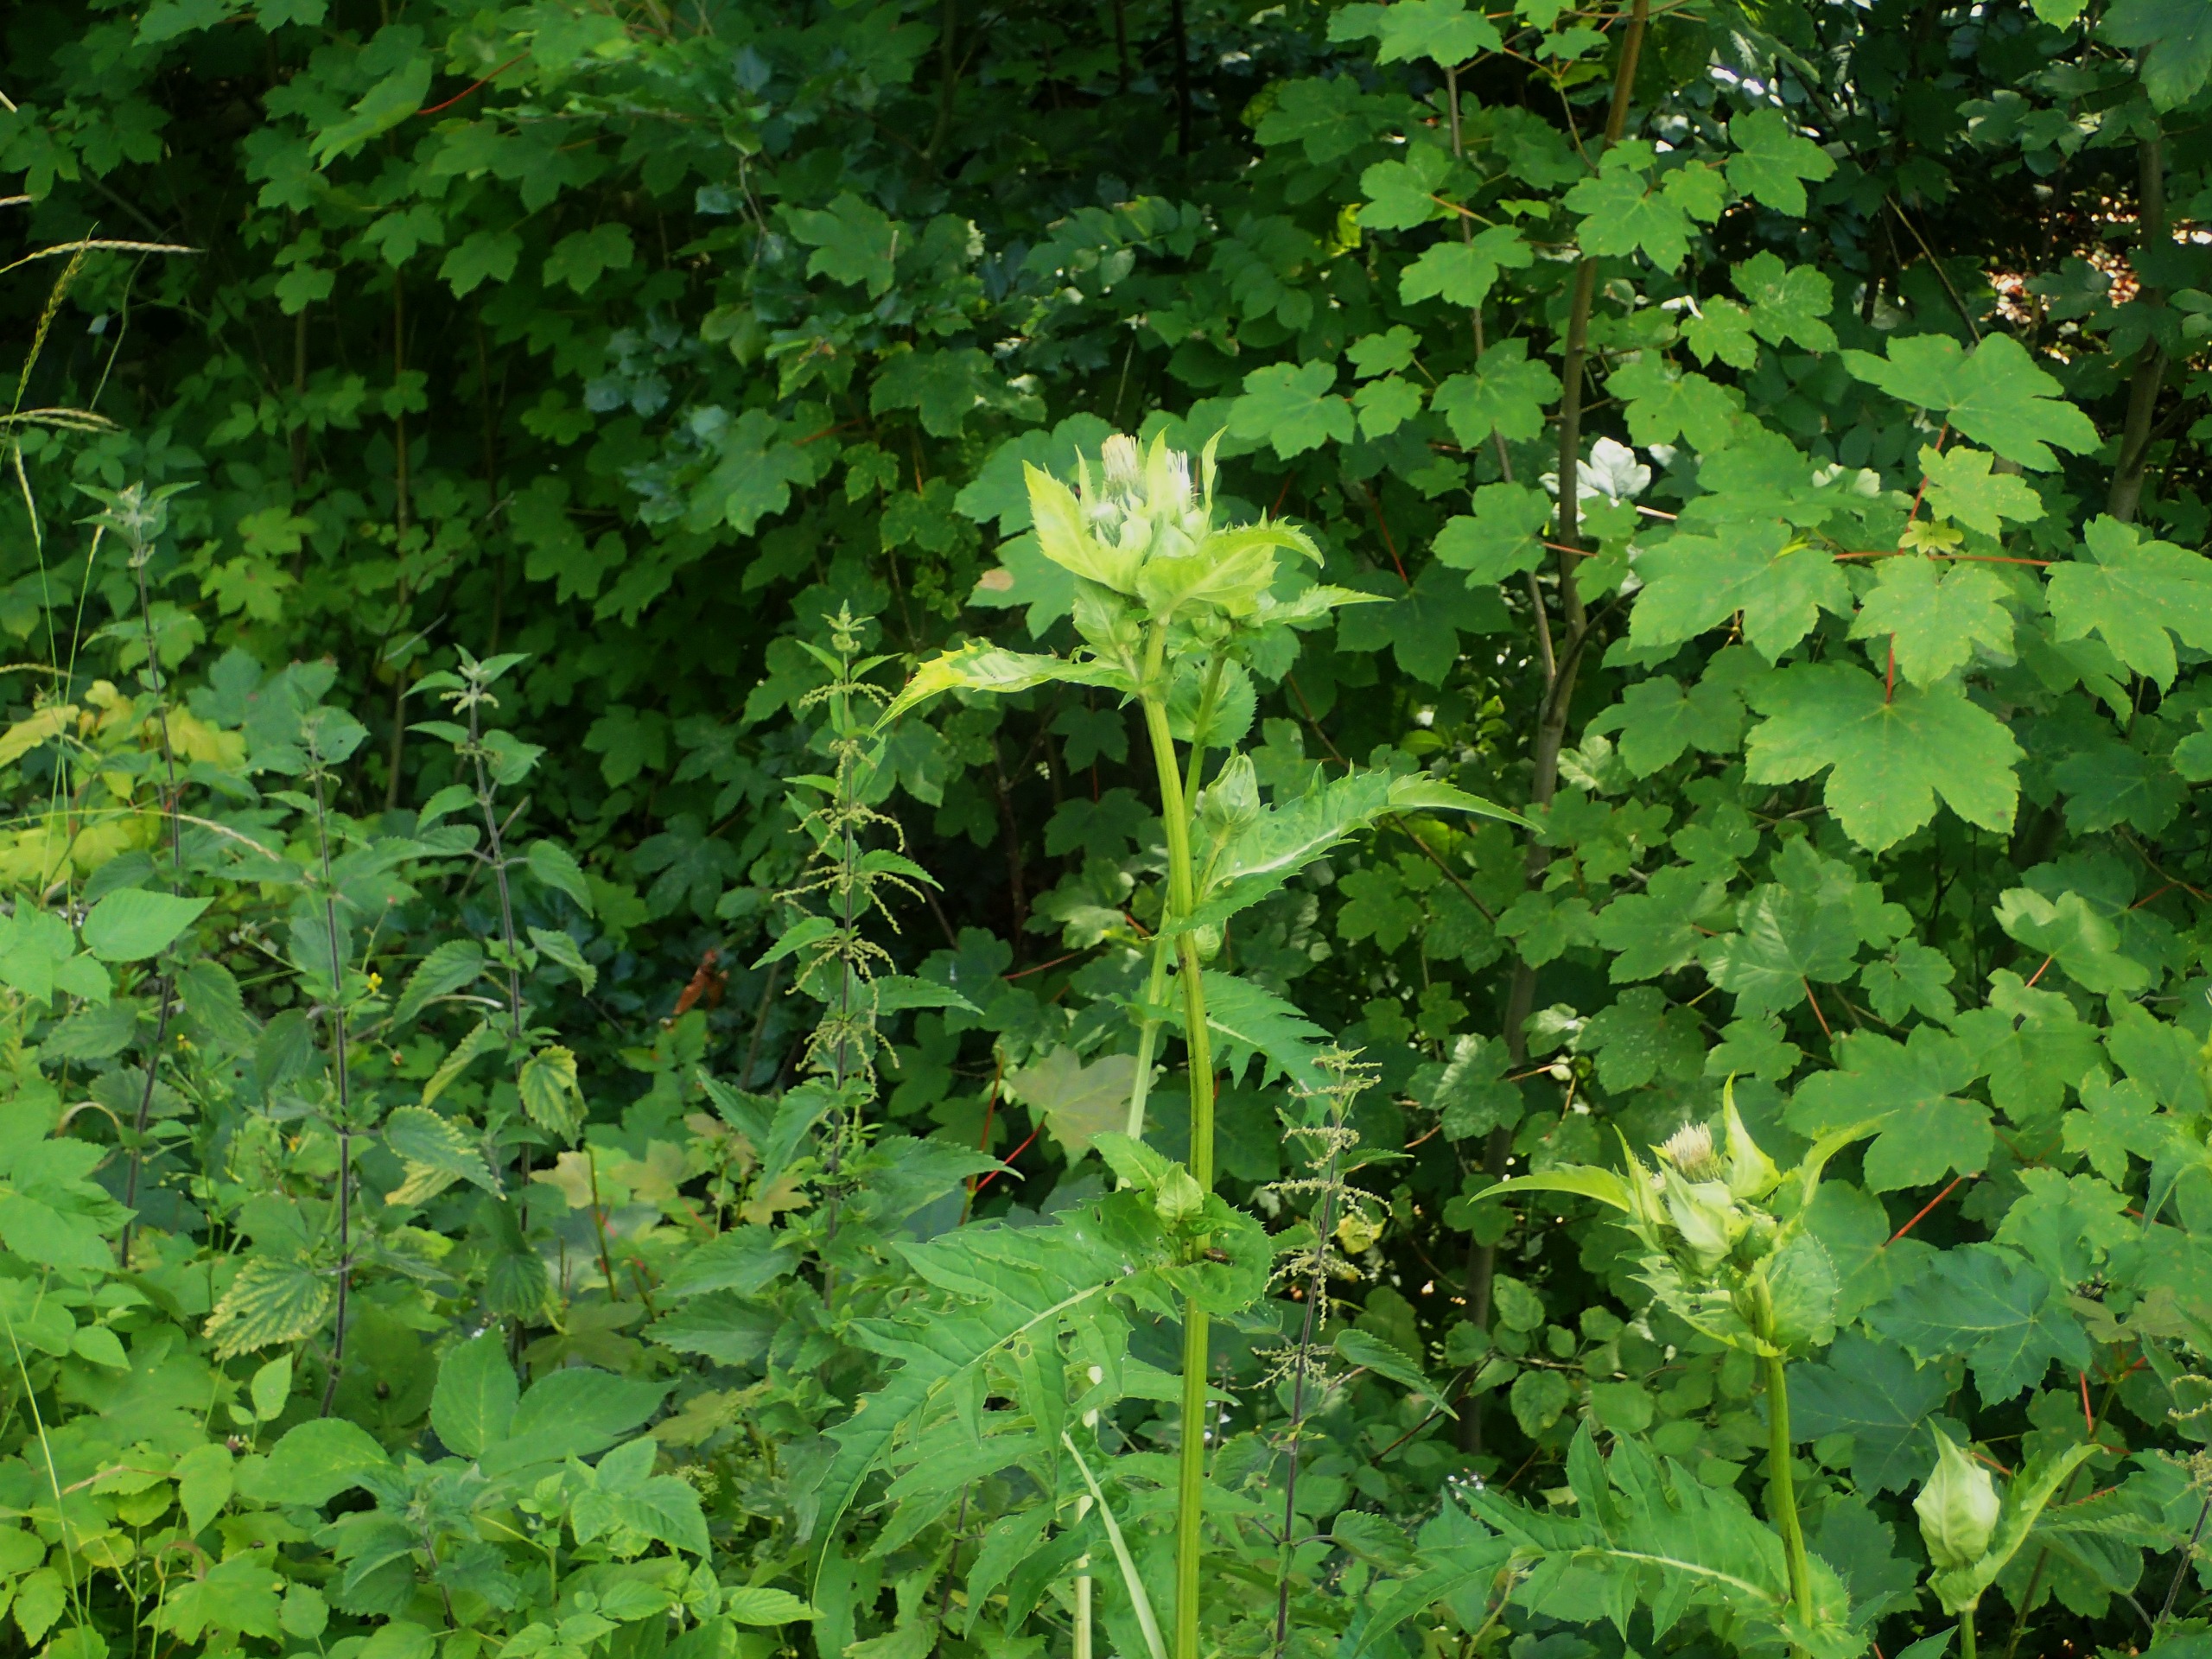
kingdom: Plantae
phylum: Tracheophyta
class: Magnoliopsida
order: Asterales
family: Asteraceae
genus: Cirsium
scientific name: Cirsium oleraceum
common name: Kål-tidsel
